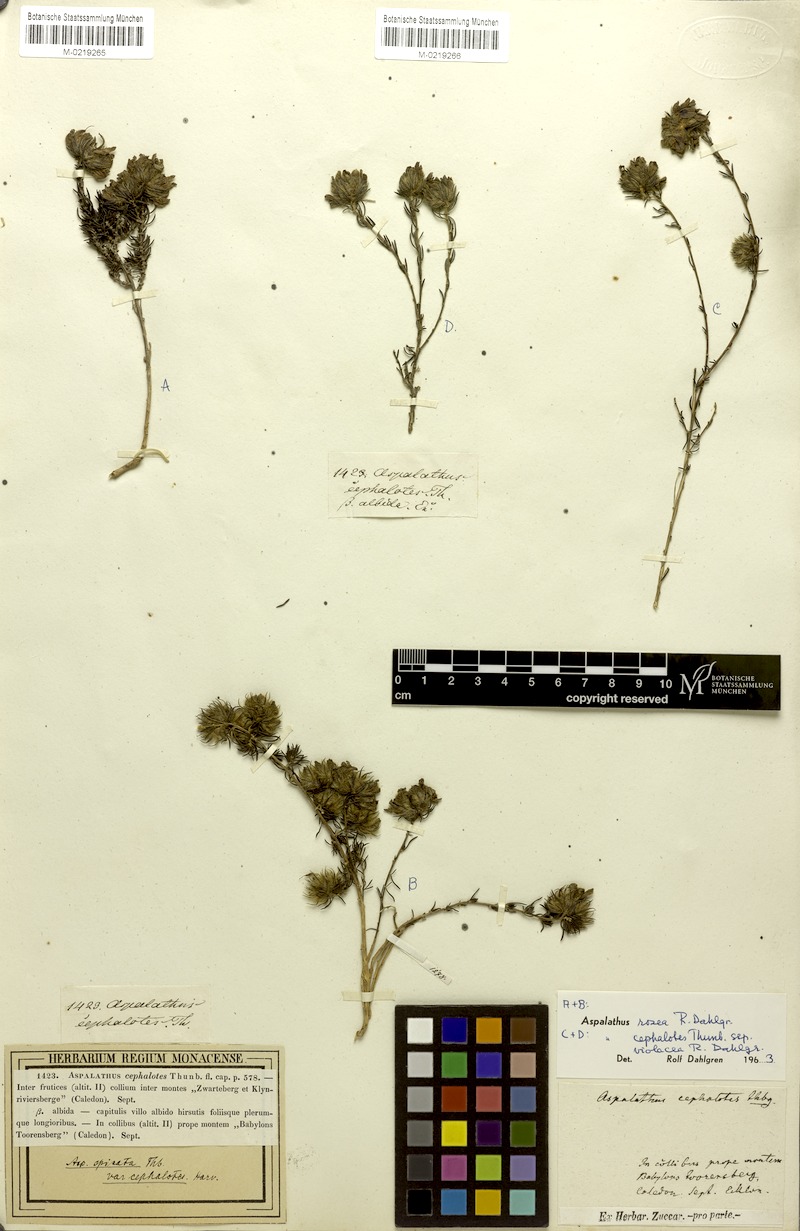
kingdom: Plantae
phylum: Tracheophyta
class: Magnoliopsida
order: Fabales
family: Fabaceae
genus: Aspalathus
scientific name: Aspalathus cephalotes
